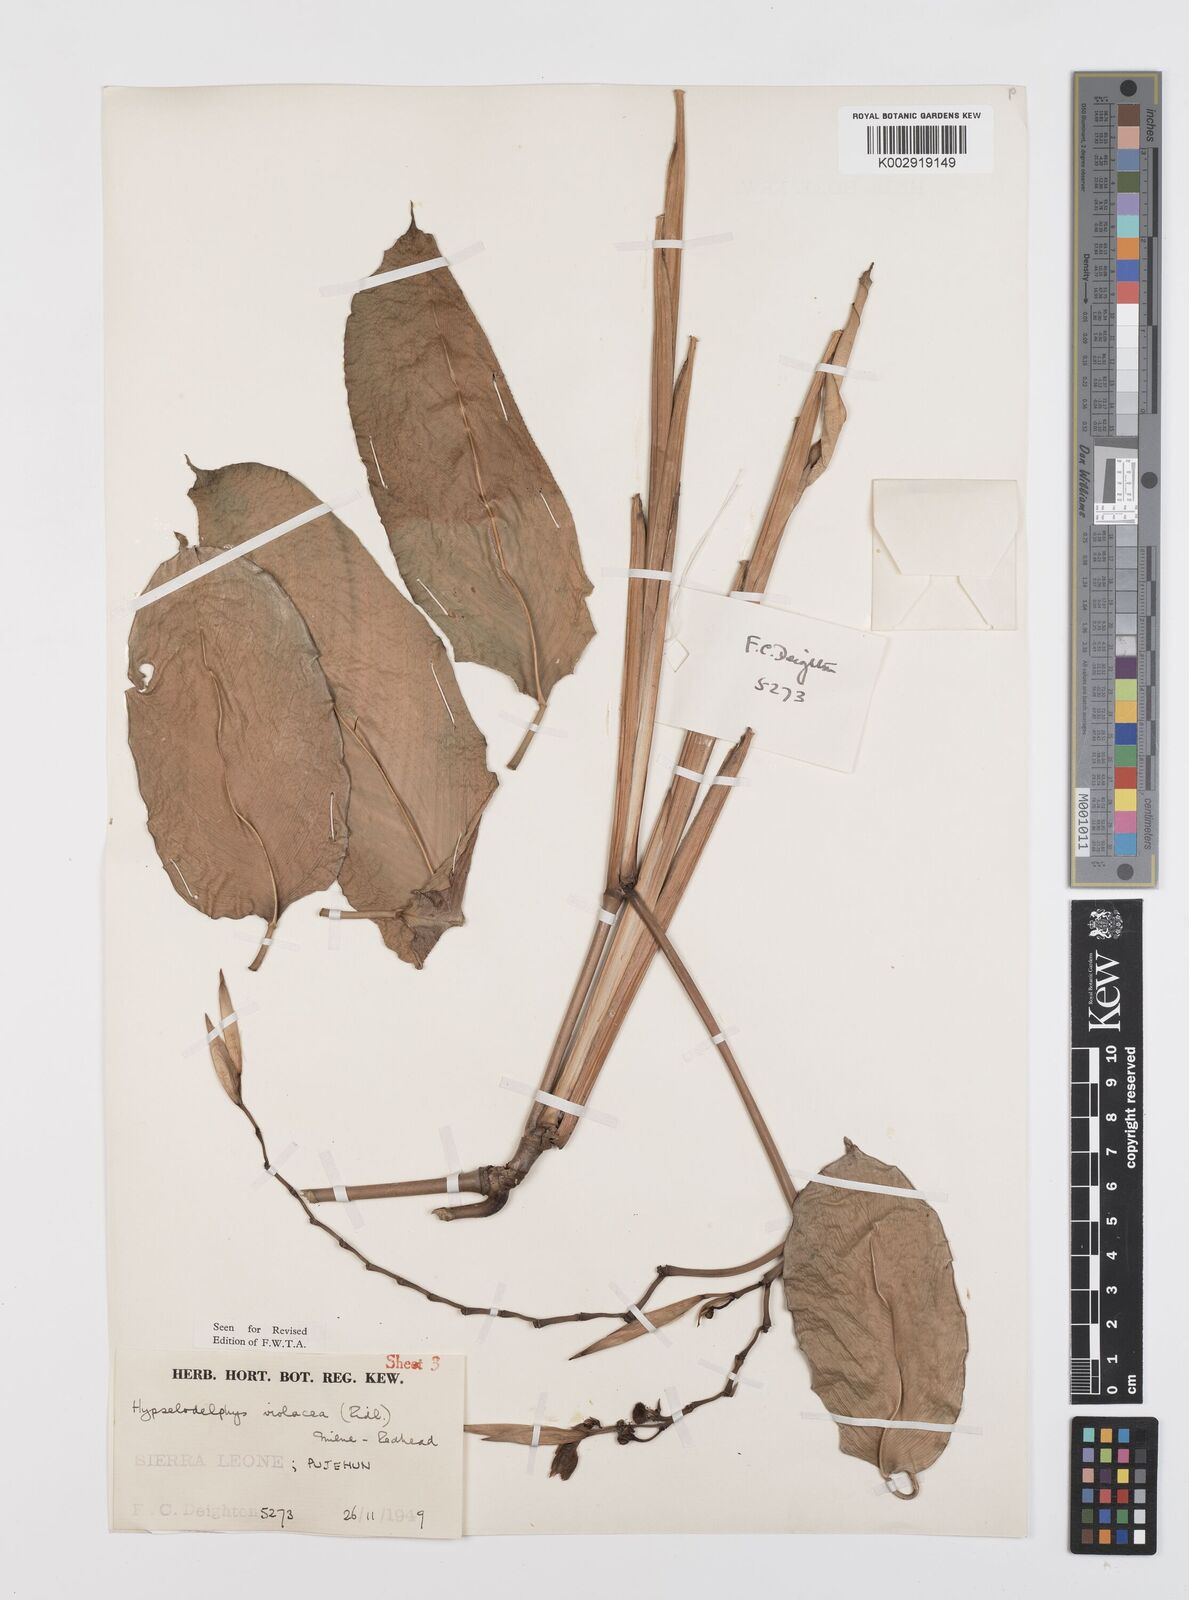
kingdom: Plantae
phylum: Tracheophyta
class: Liliopsida
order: Zingiberales
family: Marantaceae
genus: Hypselodelphys
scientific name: Hypselodelphys violacea
